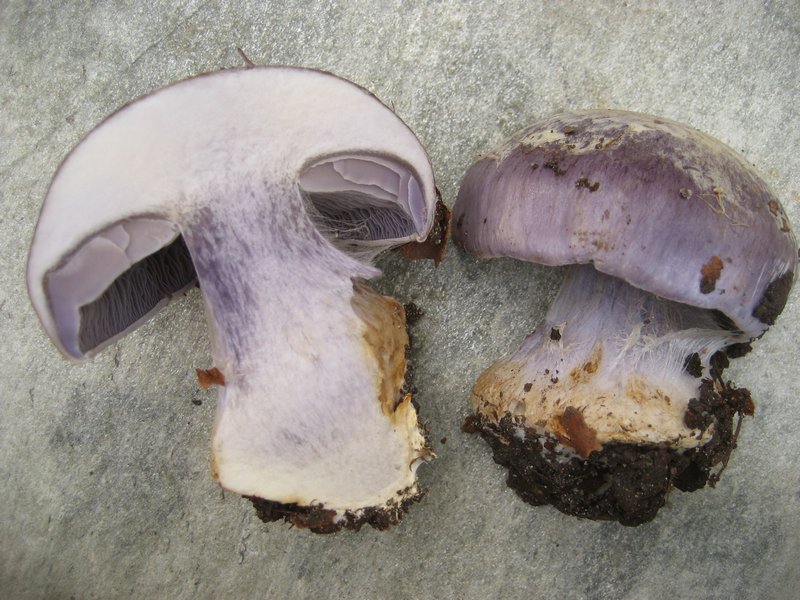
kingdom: Fungi
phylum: Basidiomycota
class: Agaricomycetes
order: Agaricales
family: Cortinariaceae
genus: Cortinarius
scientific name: Cortinarius caerulescens
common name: blåkødet slørhat
